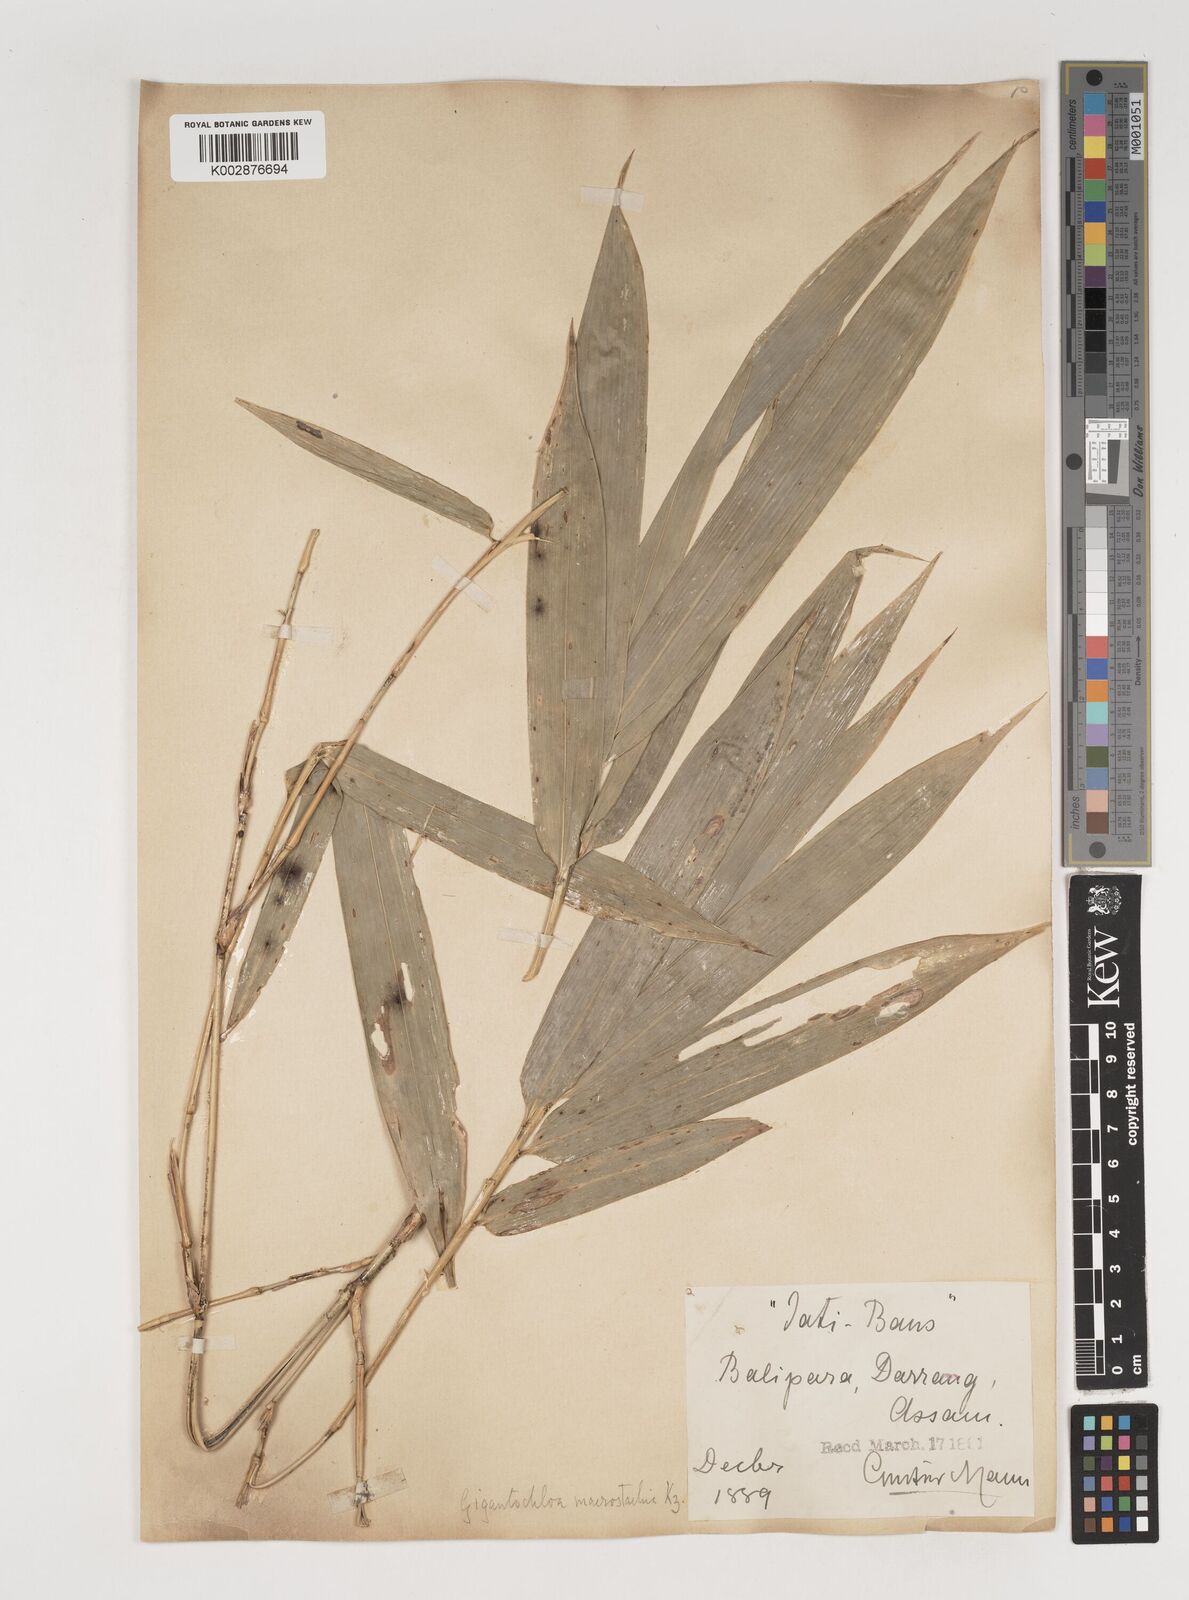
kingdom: Plantae
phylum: Tracheophyta
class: Liliopsida
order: Poales
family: Poaceae
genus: Bambusa
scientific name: Bambusa teres
